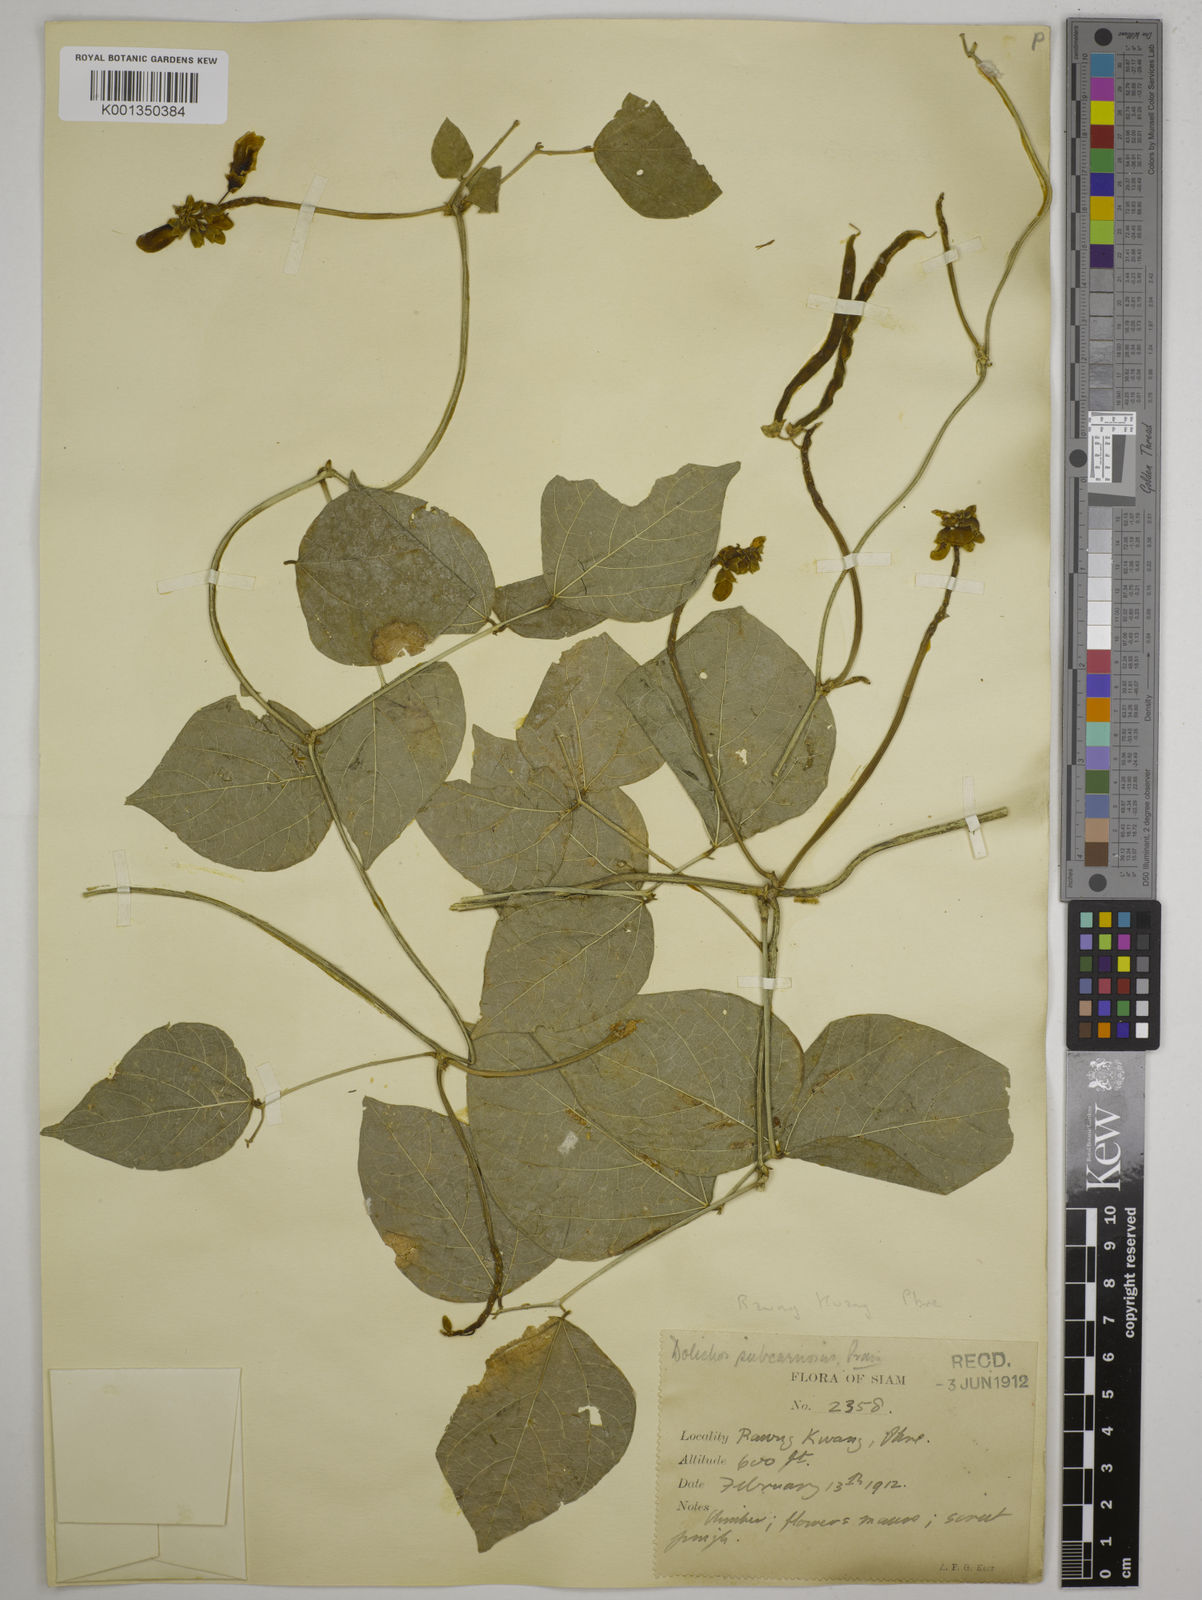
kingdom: Plantae
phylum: Tracheophyta
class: Magnoliopsida
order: Fabales
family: Fabaceae
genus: Dolichos
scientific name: Dolichos junghuhnianus
